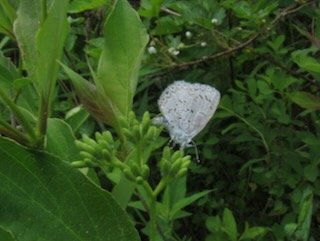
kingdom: Animalia
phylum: Arthropoda
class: Insecta
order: Lepidoptera
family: Lycaenidae
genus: Celastrina
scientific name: Celastrina
